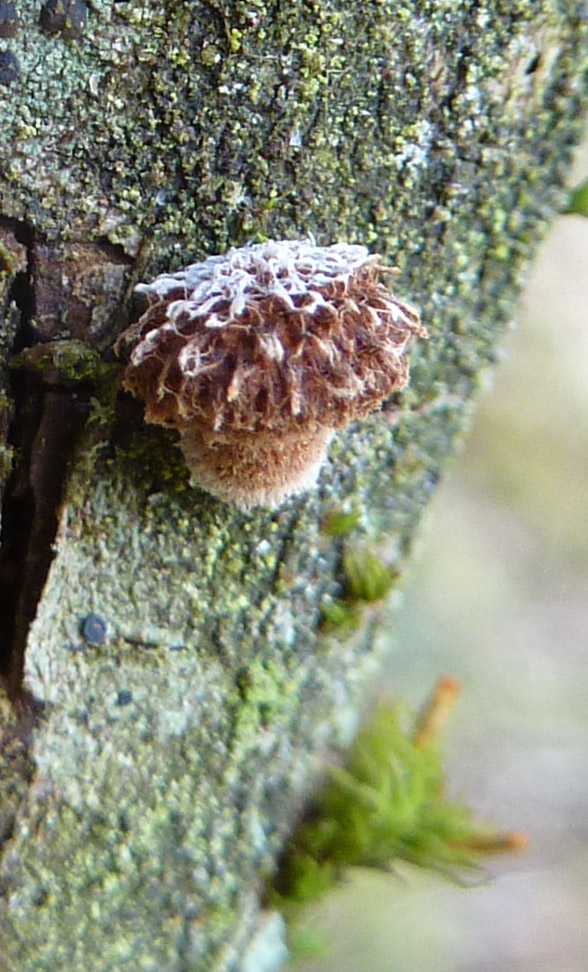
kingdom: Fungi
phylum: Basidiomycota
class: Agaricomycetes
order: Agaricales
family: Tubariaceae
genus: Phaeomarasmius
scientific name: Phaeomarasmius erinaceus
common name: spidsskælhat
